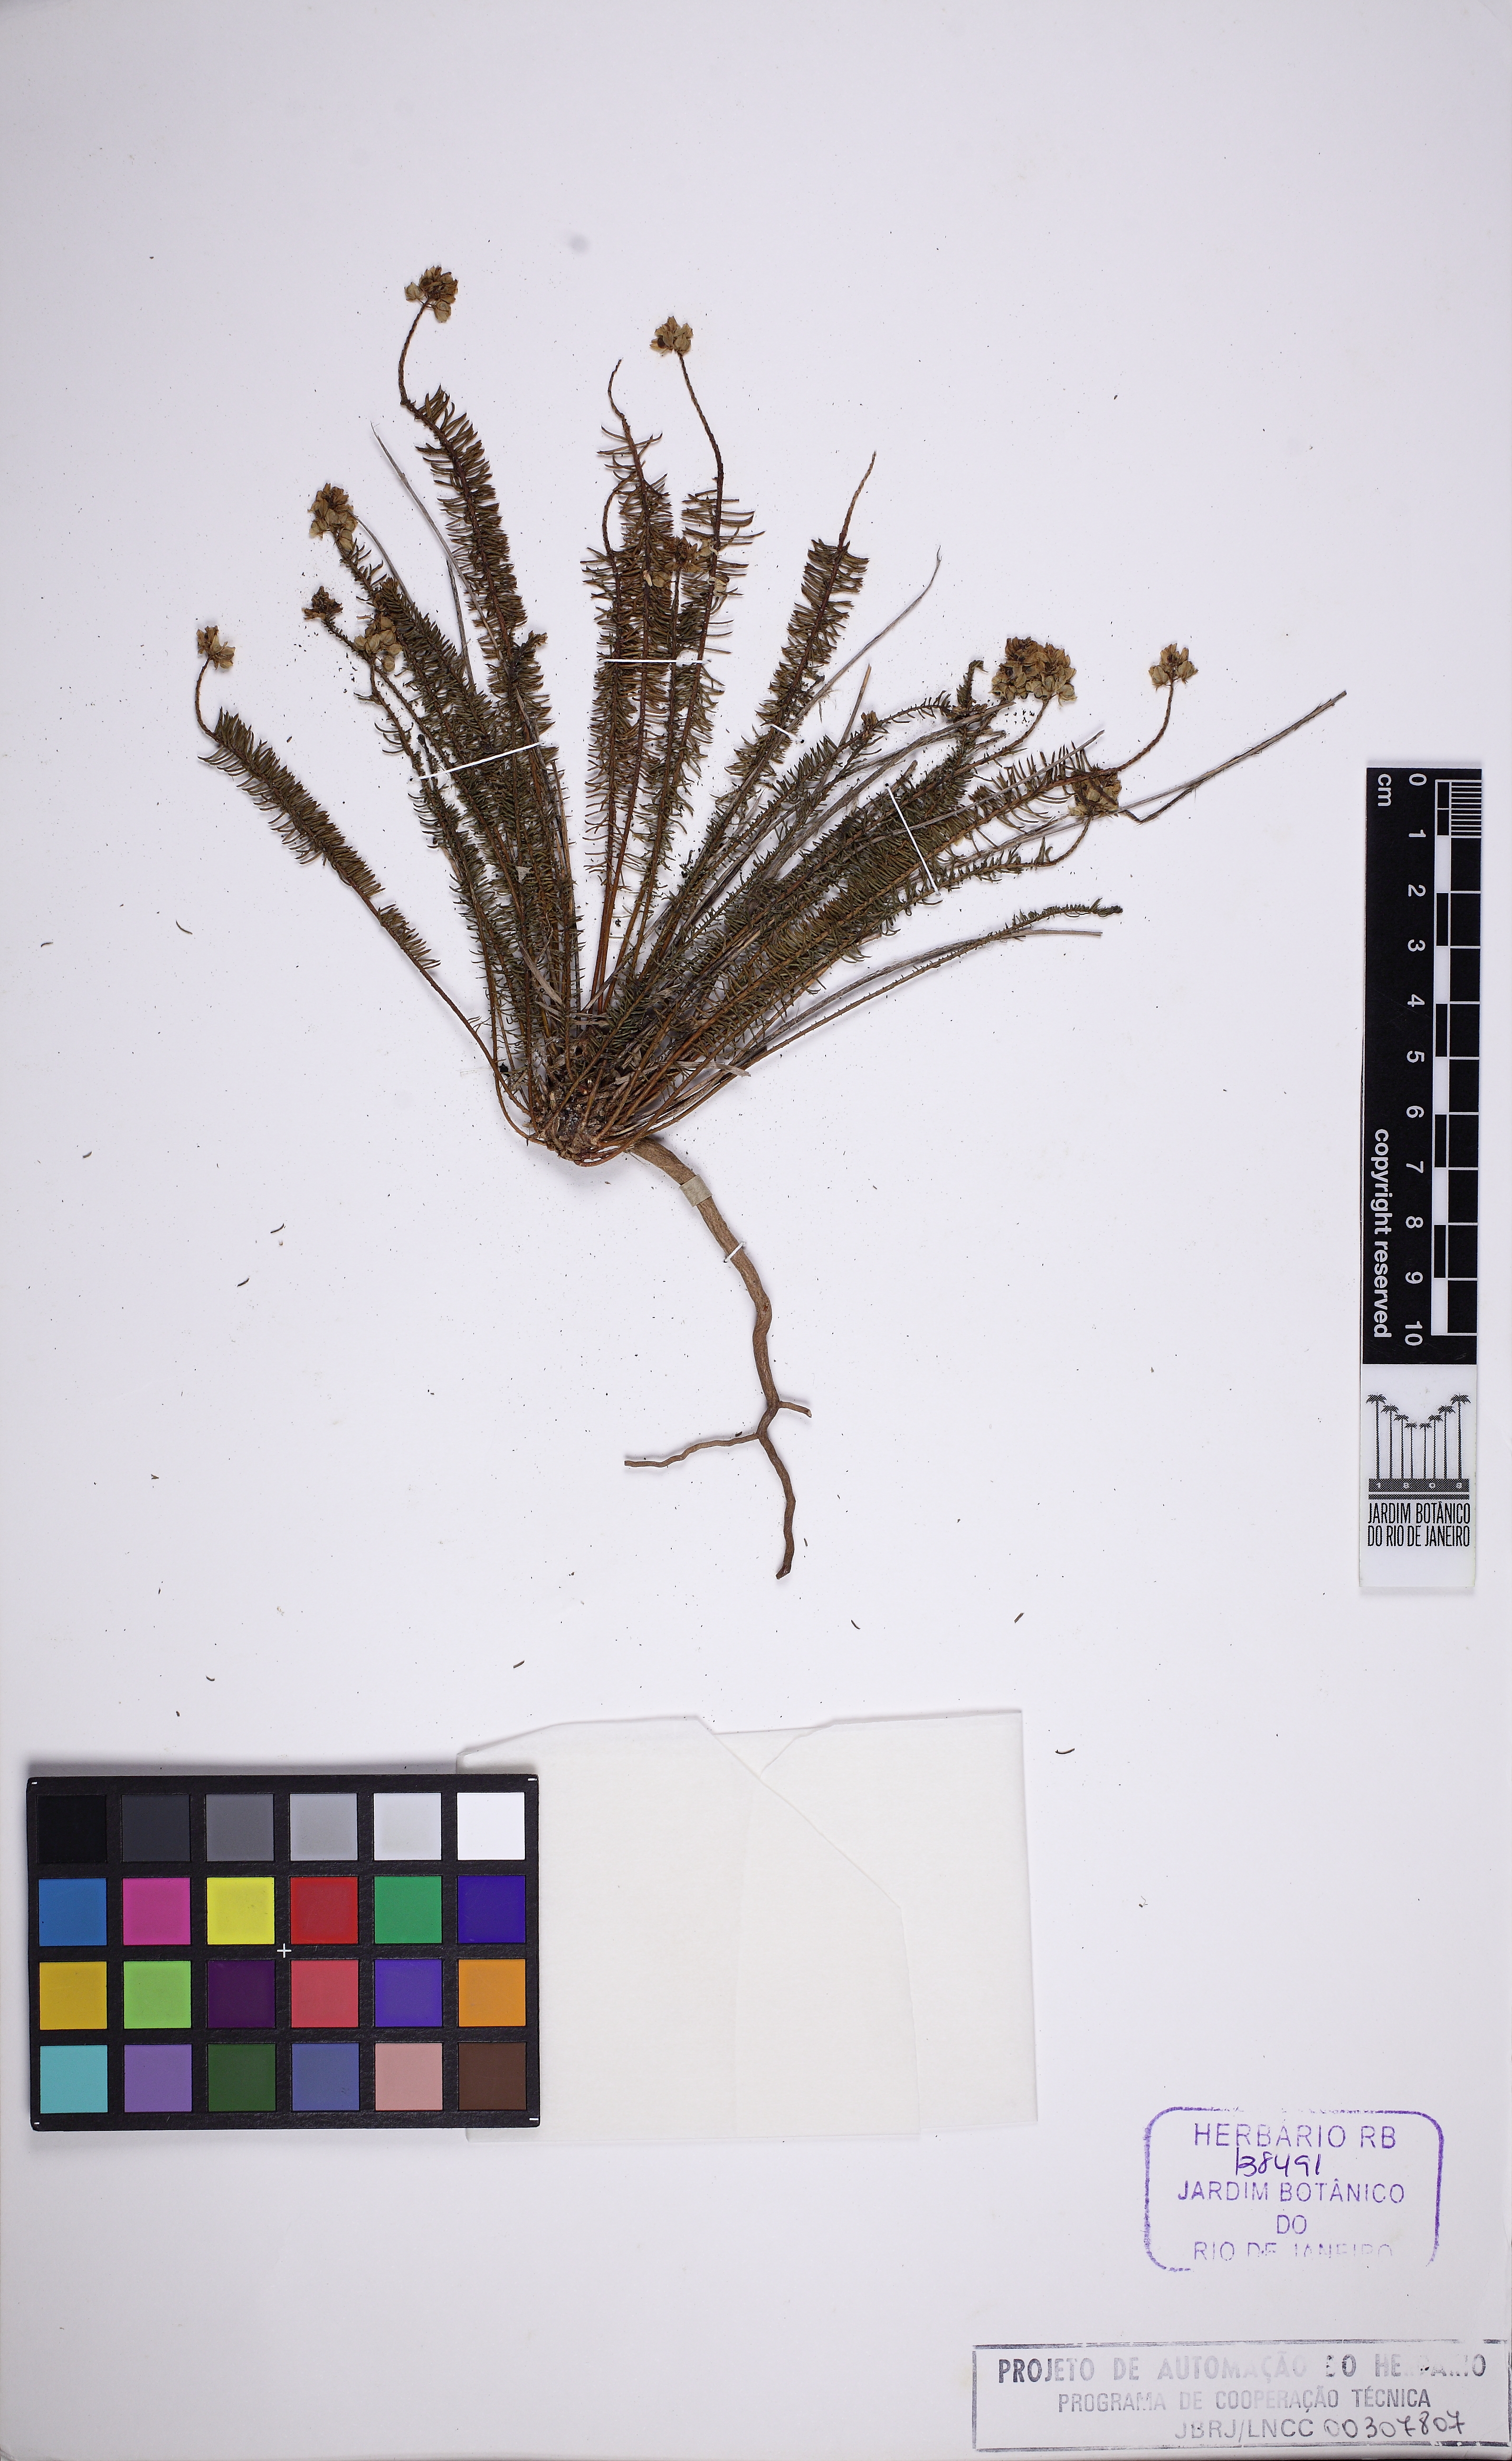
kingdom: Plantae
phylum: Tracheophyta
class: Magnoliopsida
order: Fabales
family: Polygalaceae
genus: Polygala
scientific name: Polygala cyparissias
